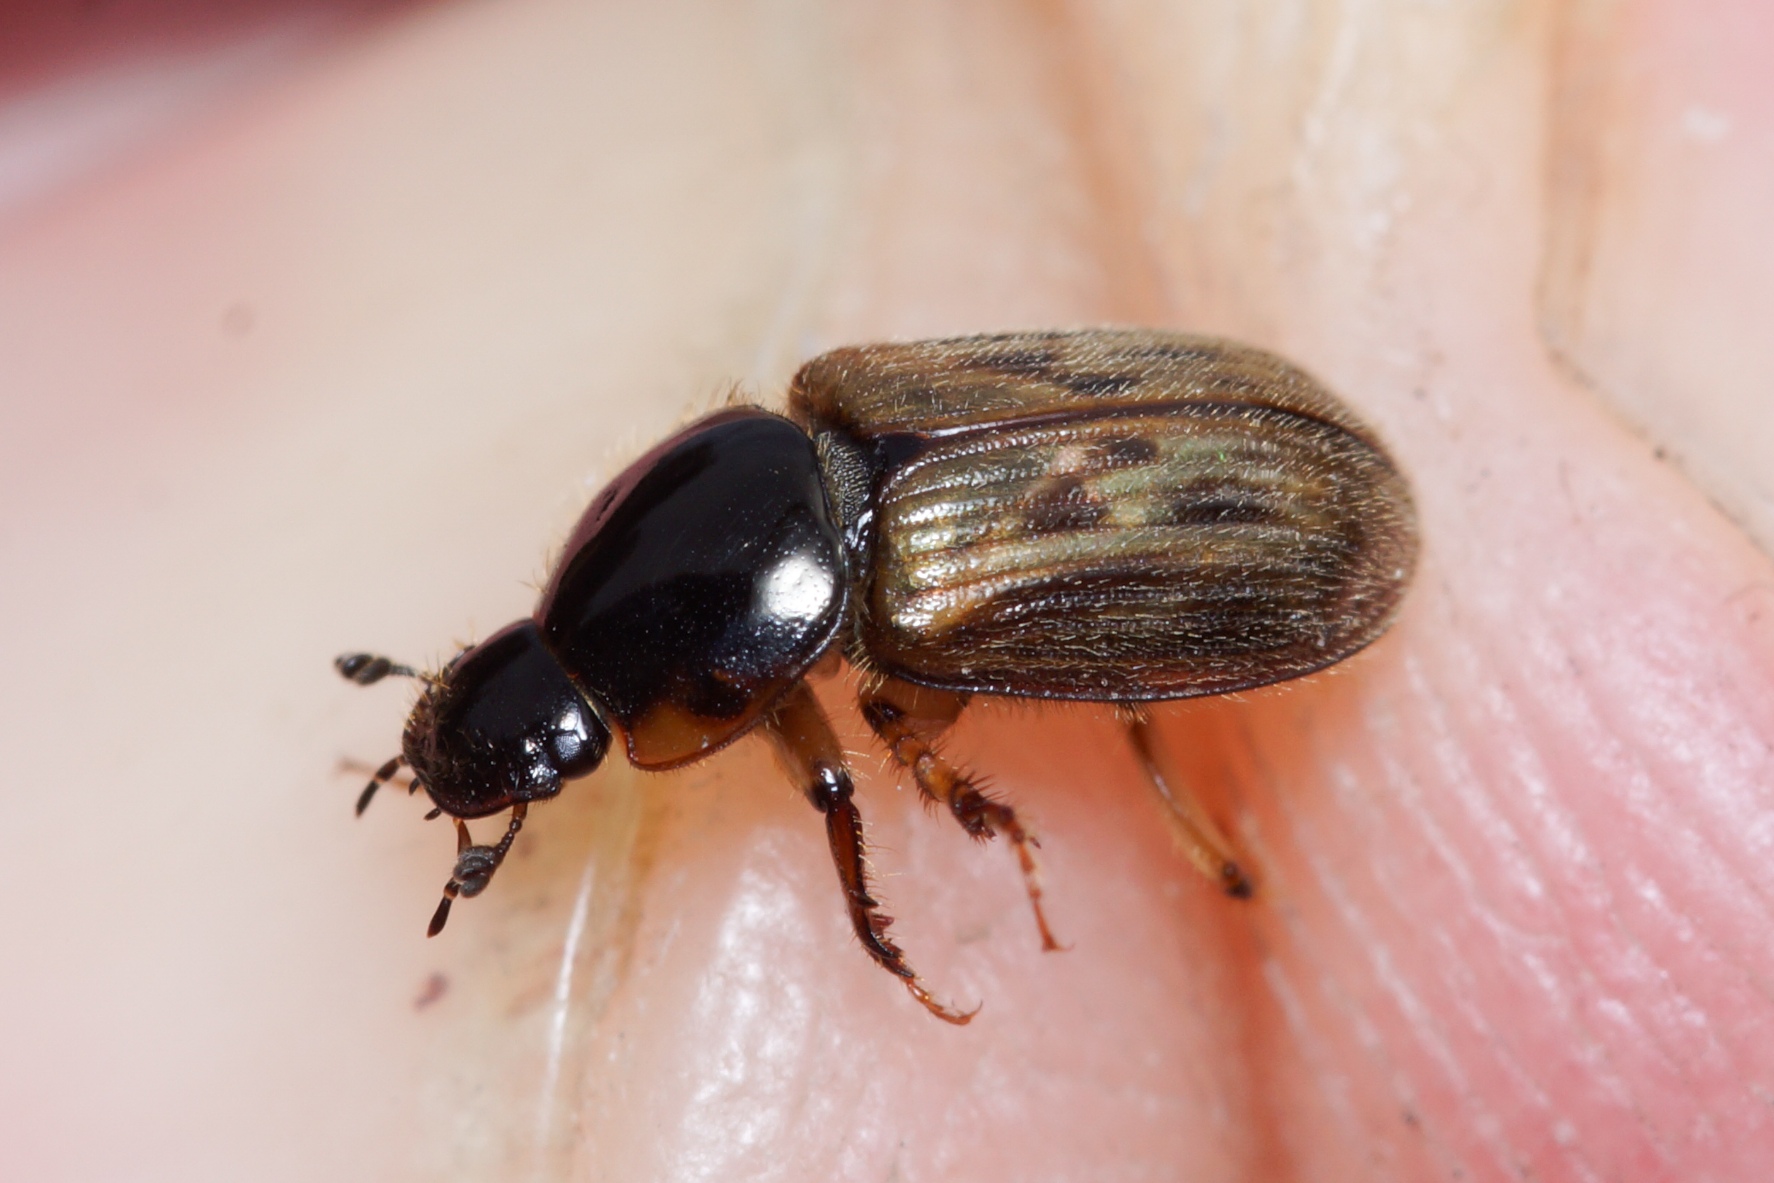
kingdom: Animalia
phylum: Arthropoda
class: Insecta
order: Coleoptera
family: Scarabaeidae
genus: Nimbus
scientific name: Nimbus contaminatus
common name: Sandhåret møgbille
